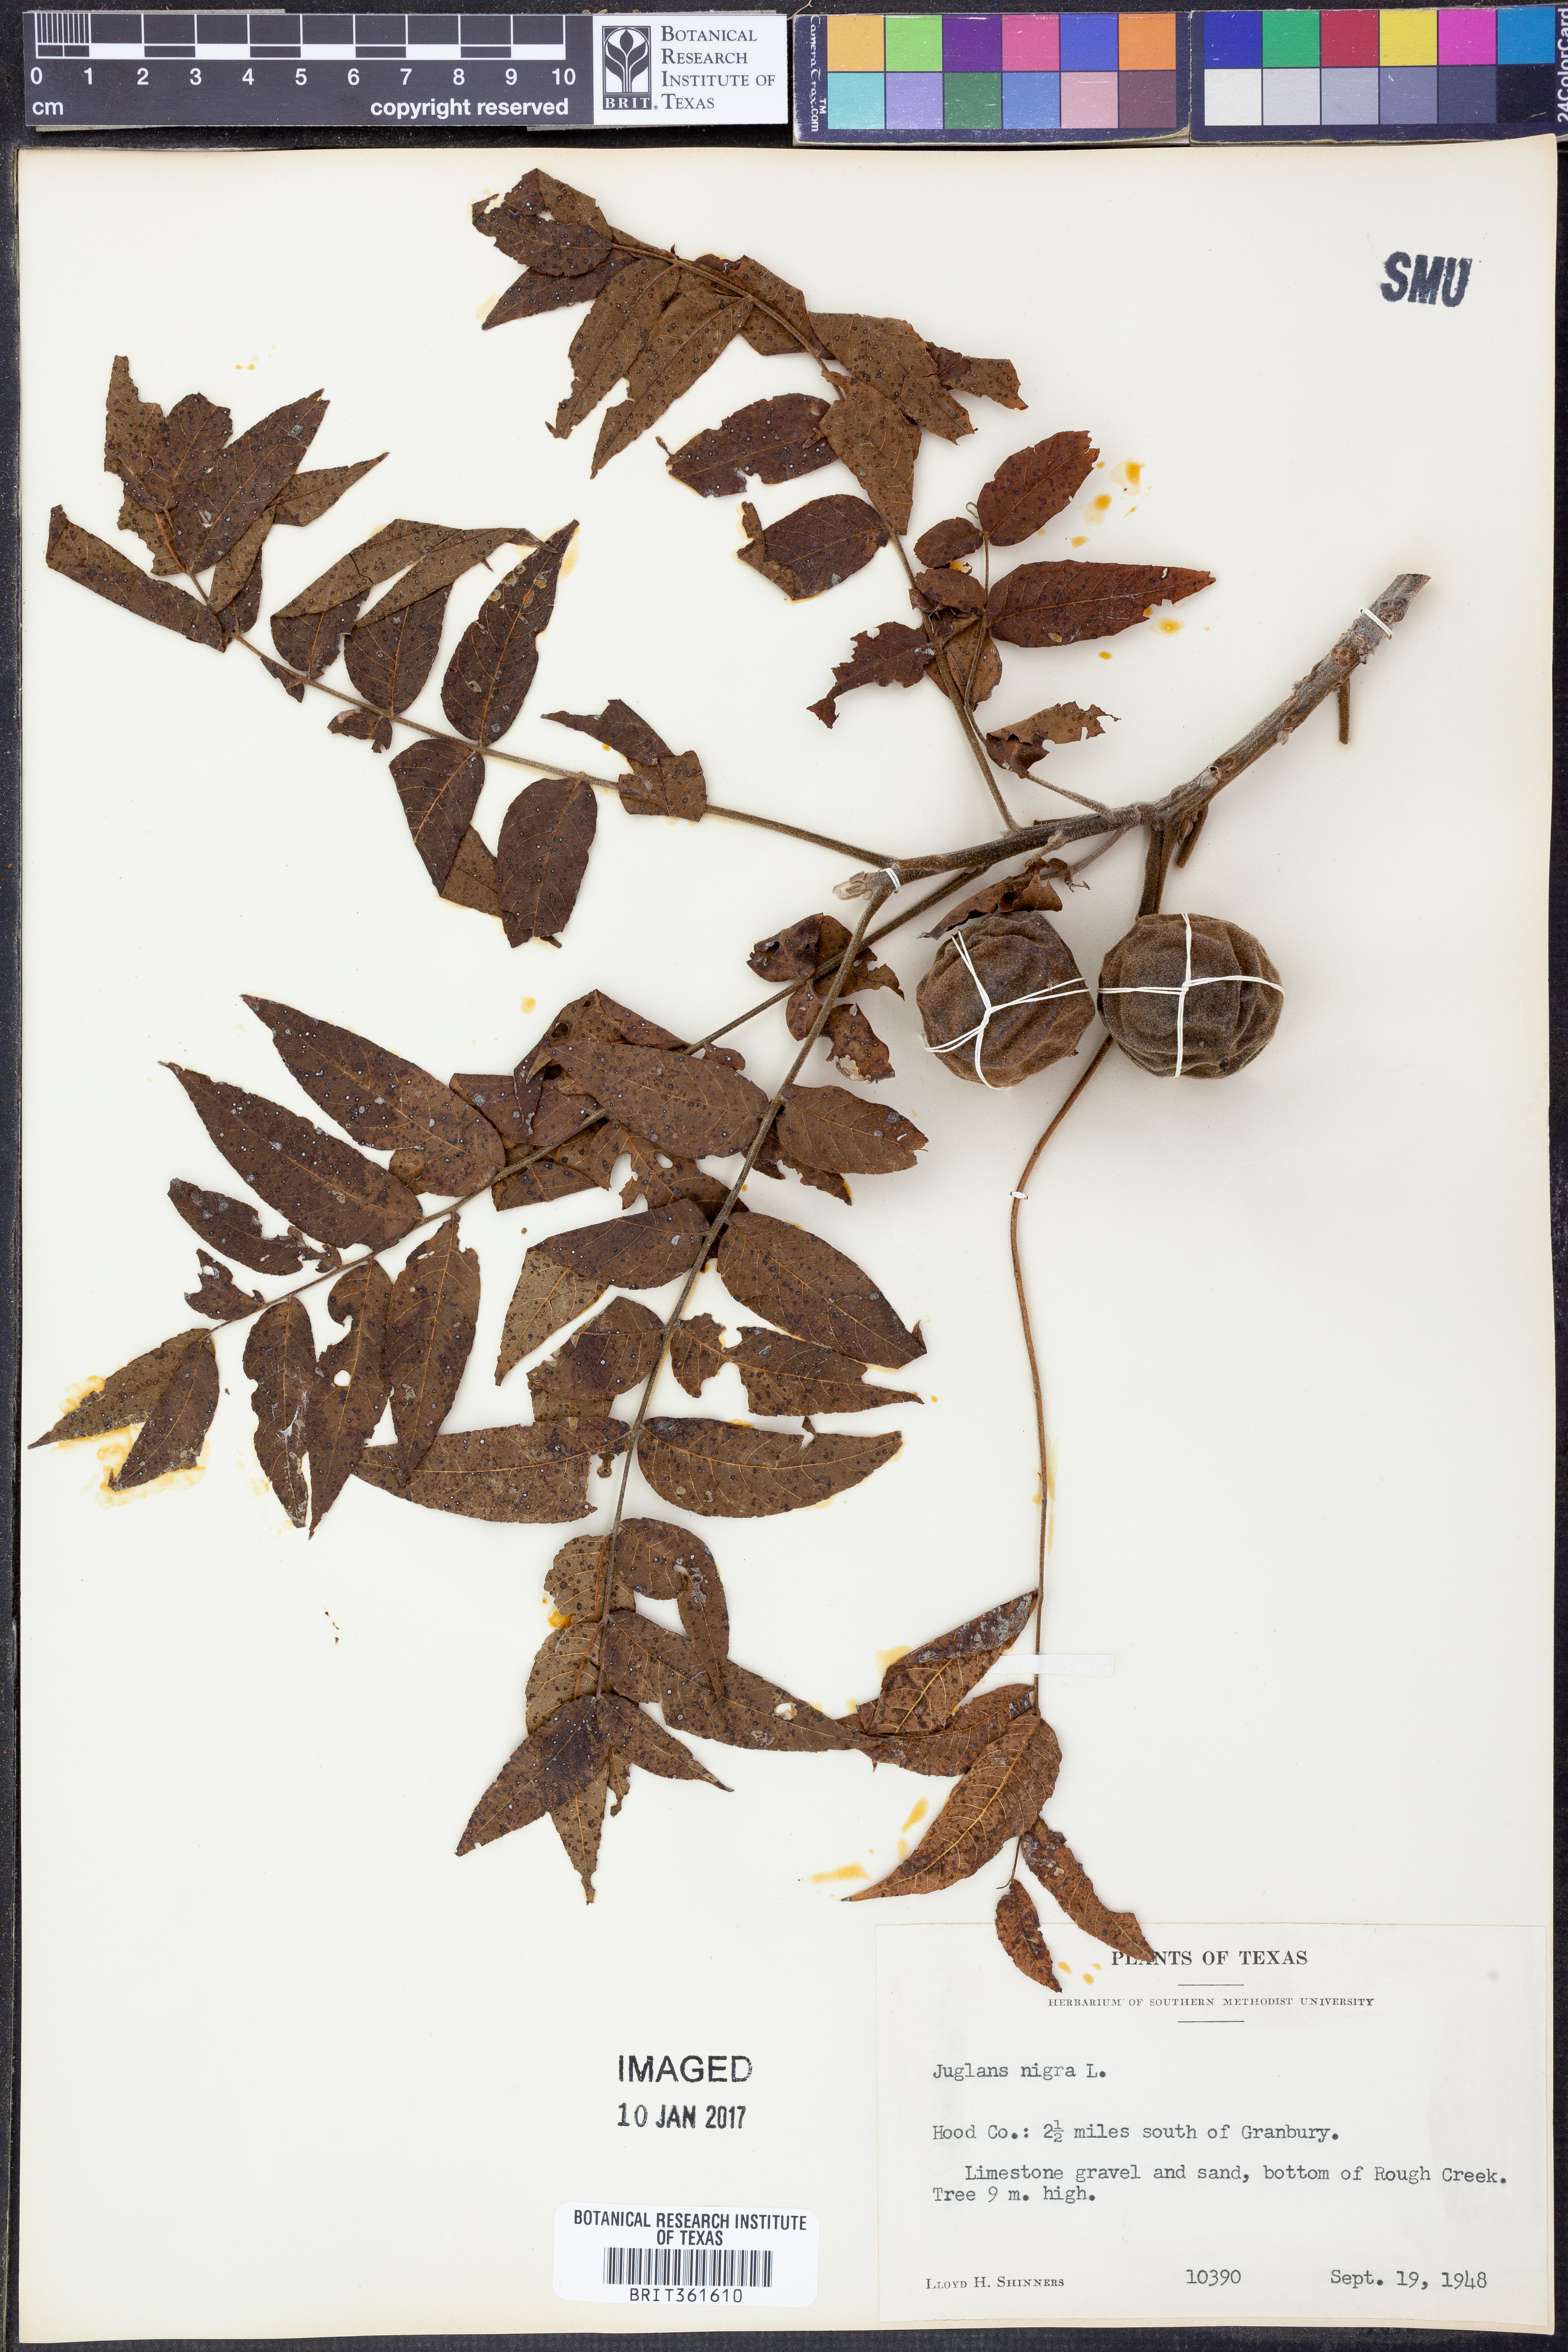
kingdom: Plantae
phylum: Tracheophyta
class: Magnoliopsida
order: Fagales
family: Juglandaceae
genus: Juglans
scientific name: Juglans nigra
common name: Black walnut
